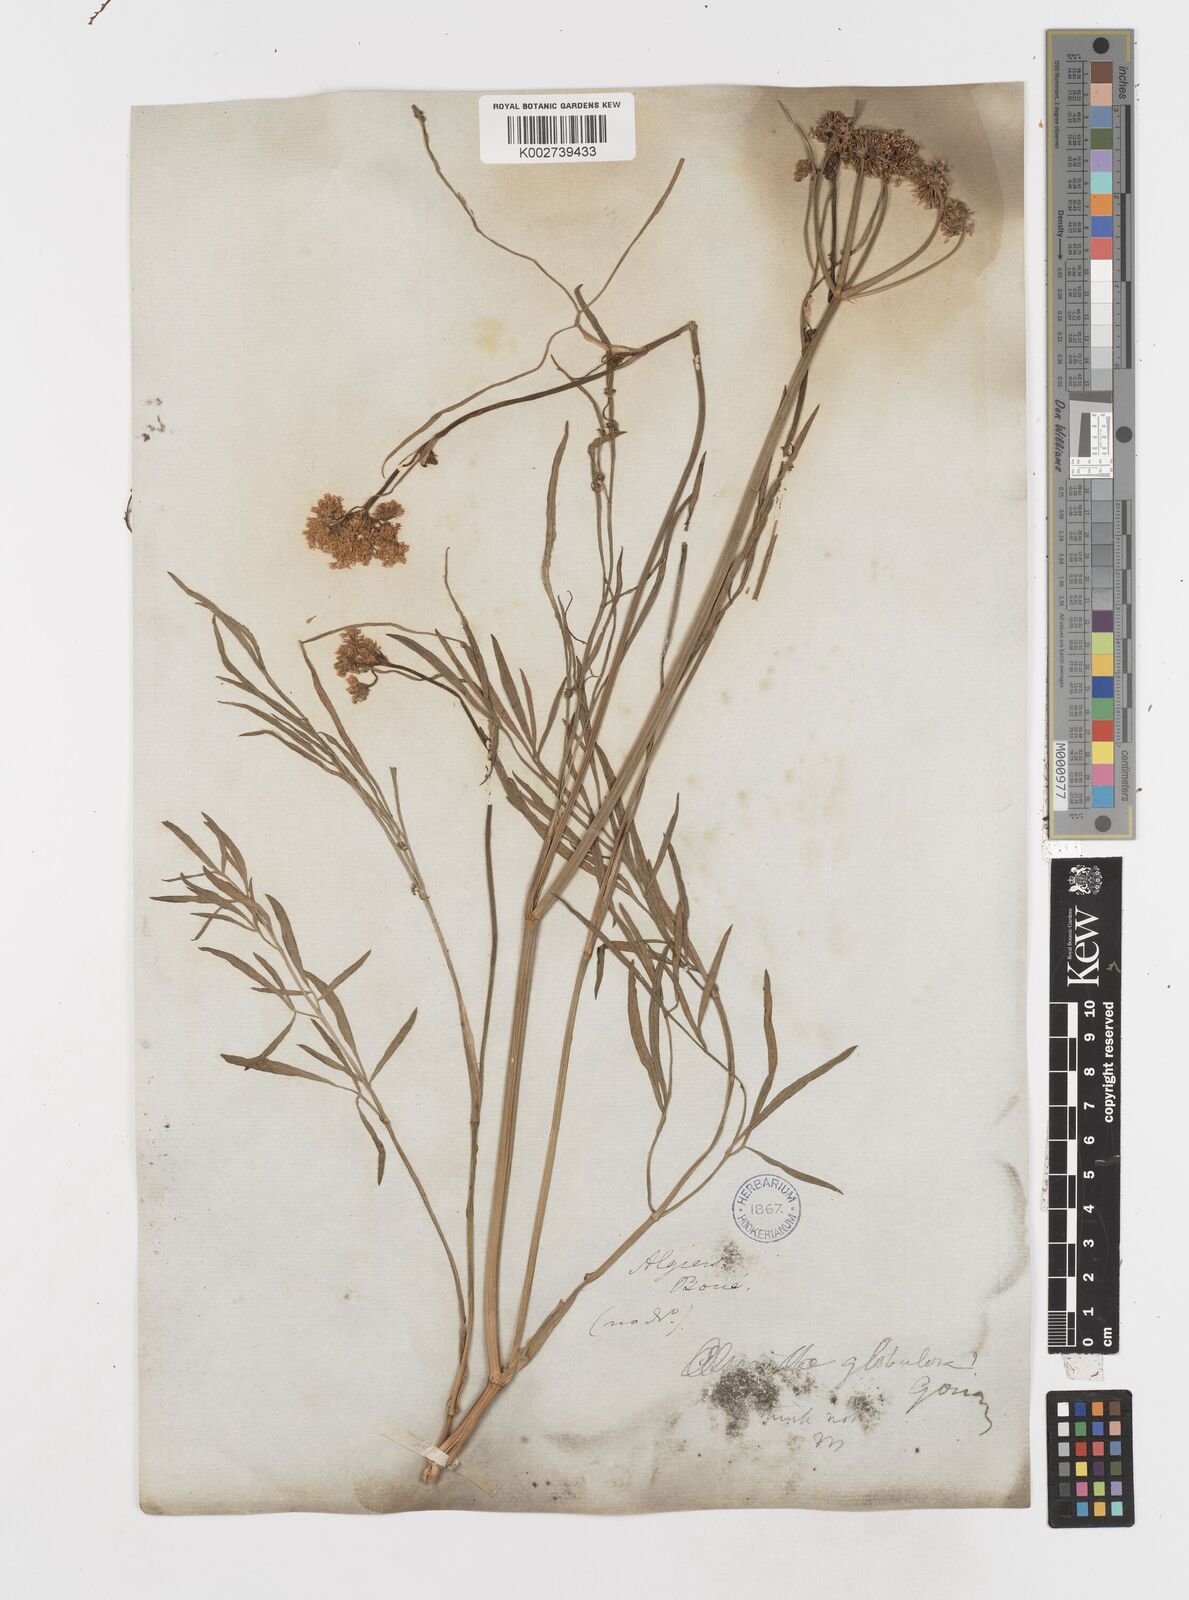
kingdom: Plantae
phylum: Tracheophyta
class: Magnoliopsida
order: Apiales
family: Apiaceae
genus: Oenanthe
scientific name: Oenanthe globulosa
